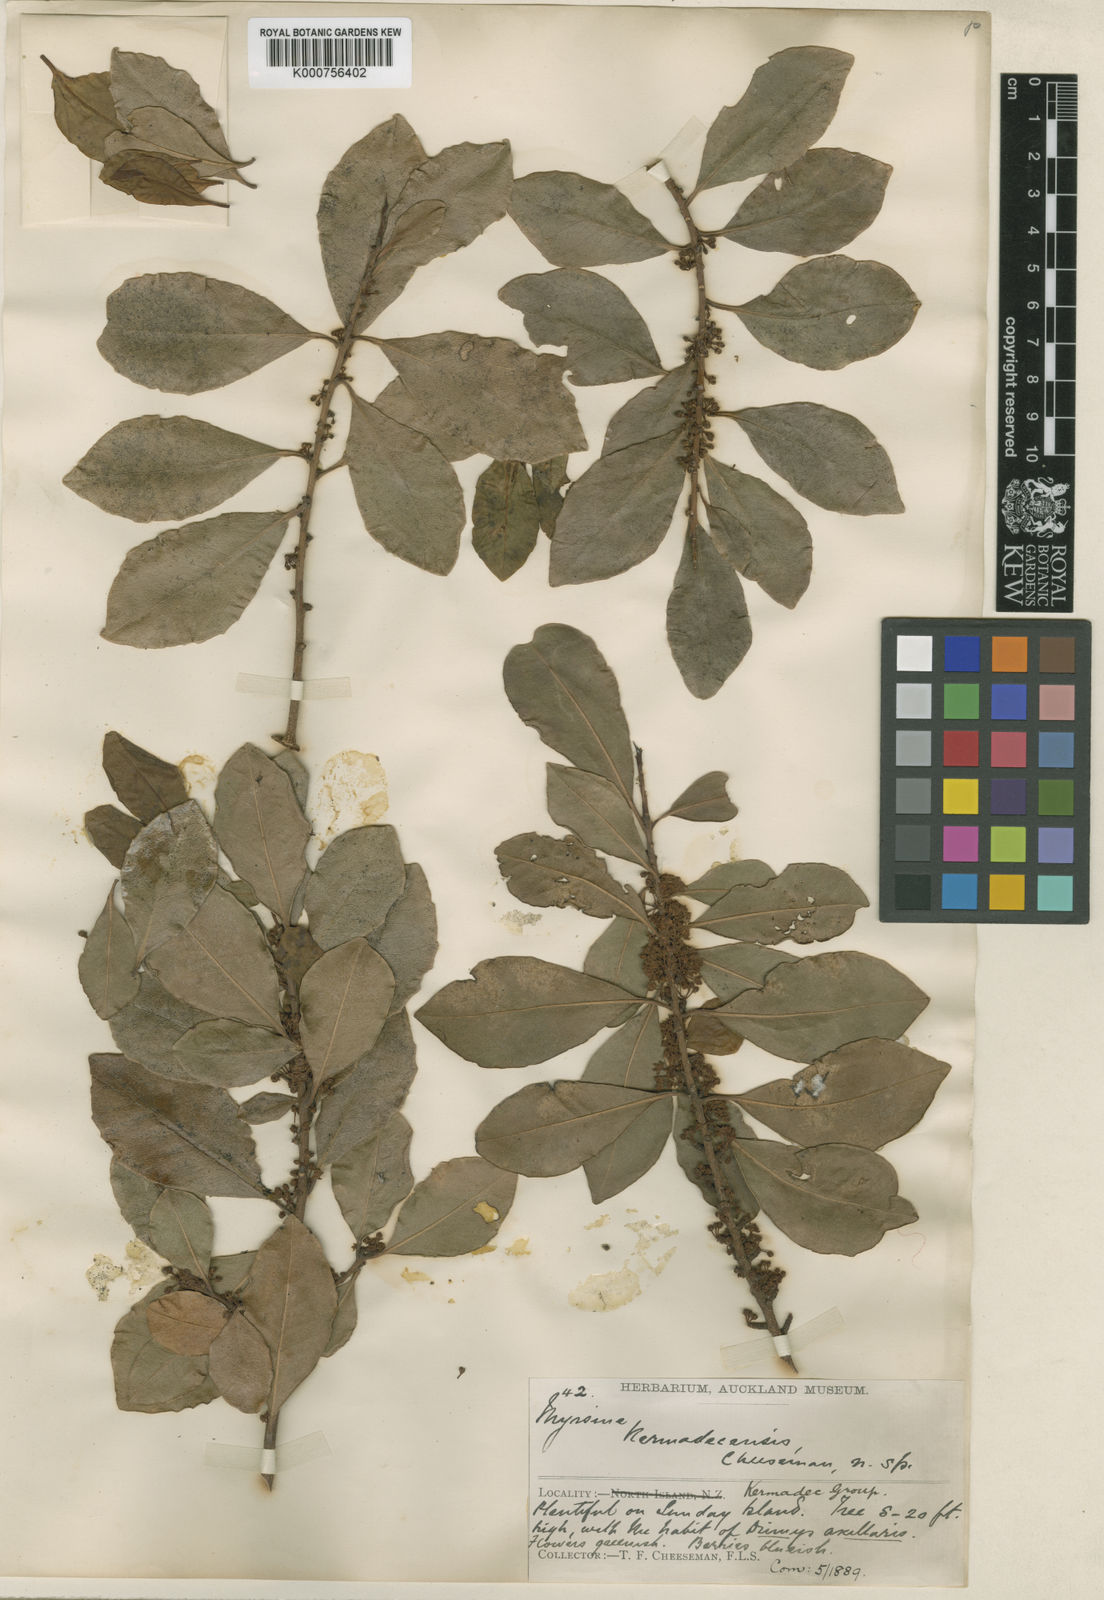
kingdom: Plantae
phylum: Tracheophyta
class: Magnoliopsida
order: Ericales
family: Primulaceae
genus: Myrsine
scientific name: Myrsine kermadecensis
